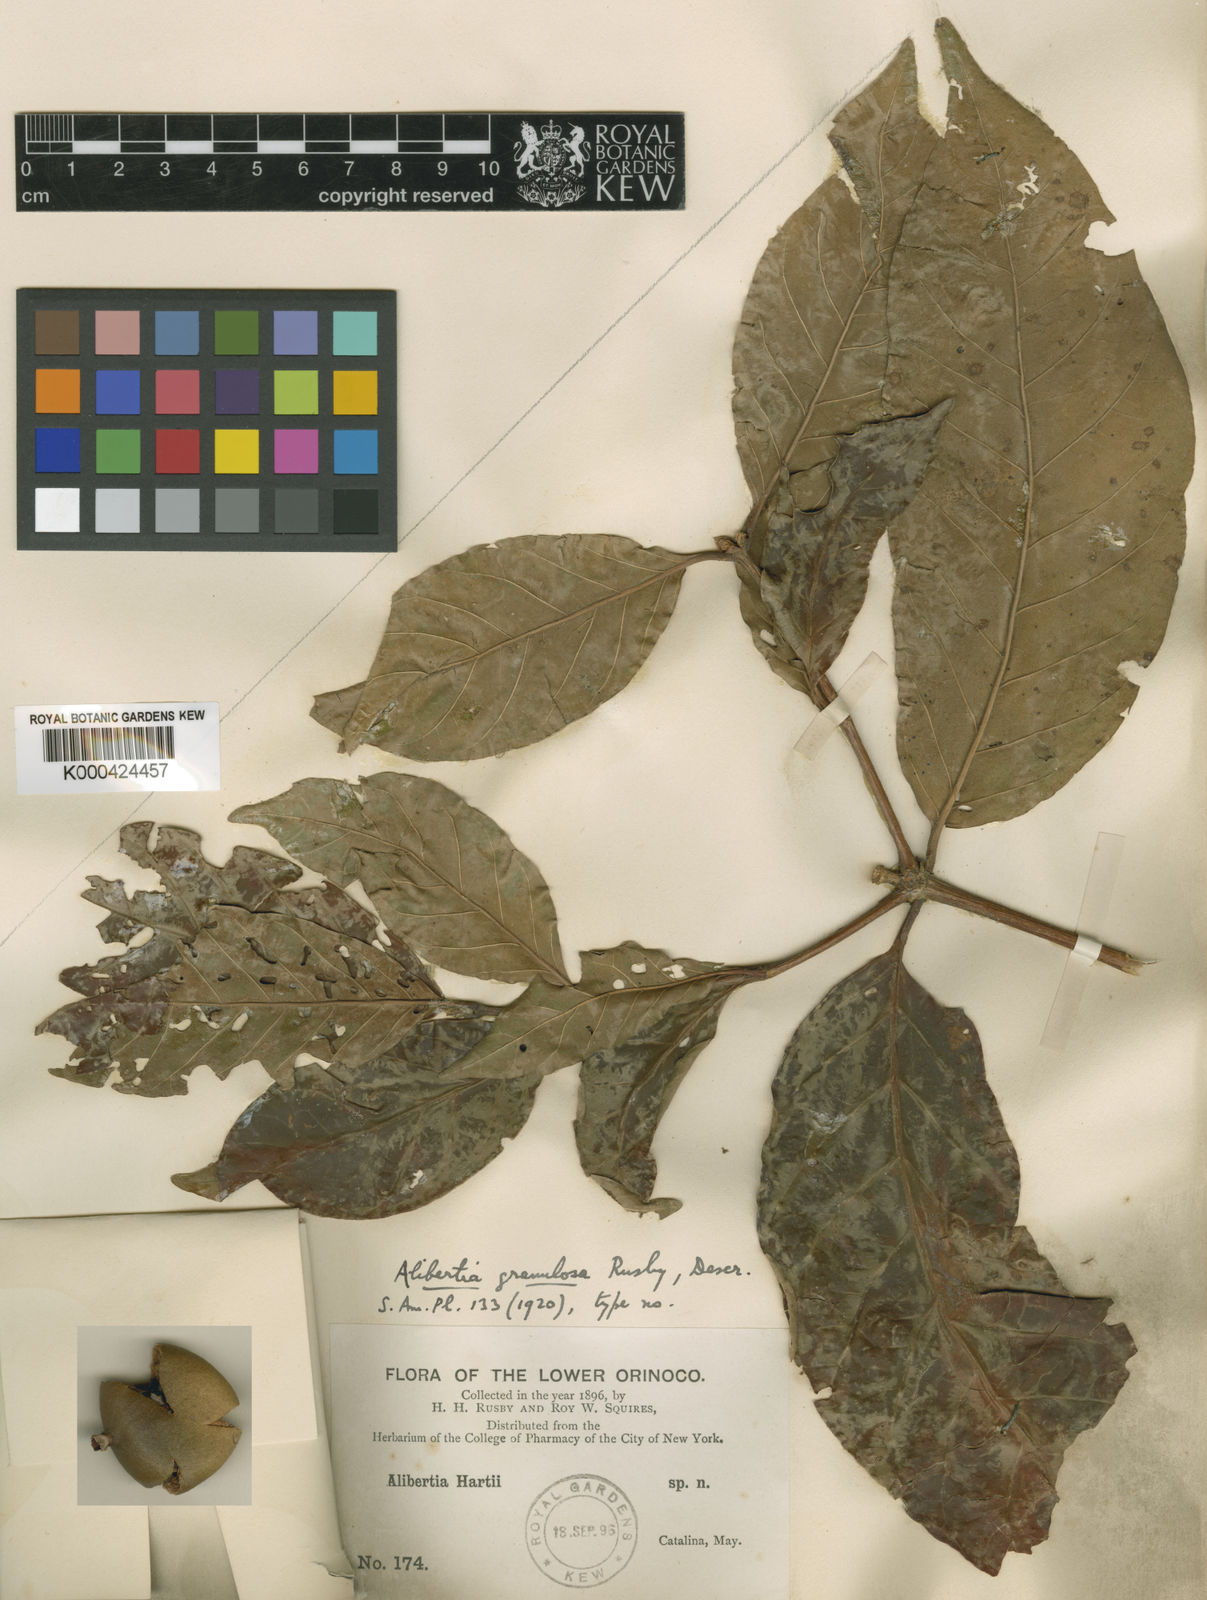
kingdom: Plantae
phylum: Tracheophyta
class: Magnoliopsida
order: Gentianales
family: Rubiaceae
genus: Alibertia
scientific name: Alibertia latifolia
